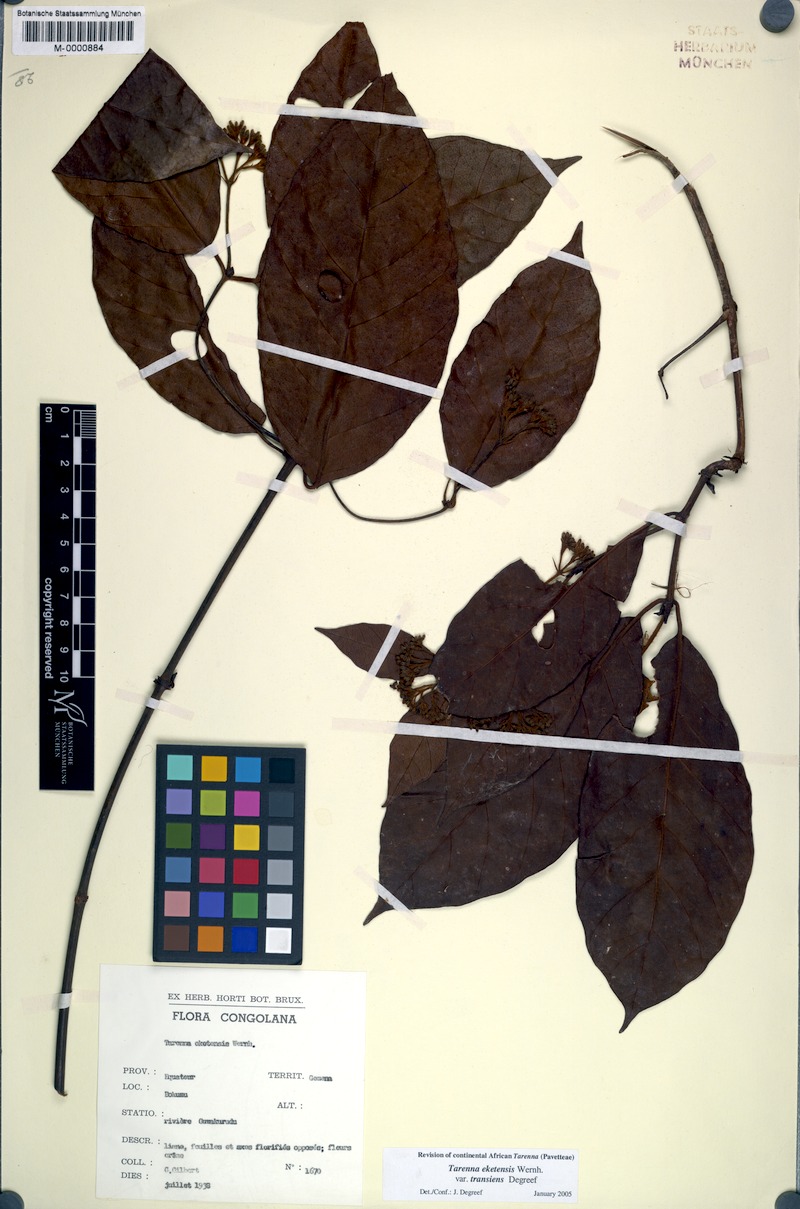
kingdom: Plantae
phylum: Tracheophyta
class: Magnoliopsida
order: Gentianales
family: Rubiaceae
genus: Tarenna
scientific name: Tarenna eketensis
